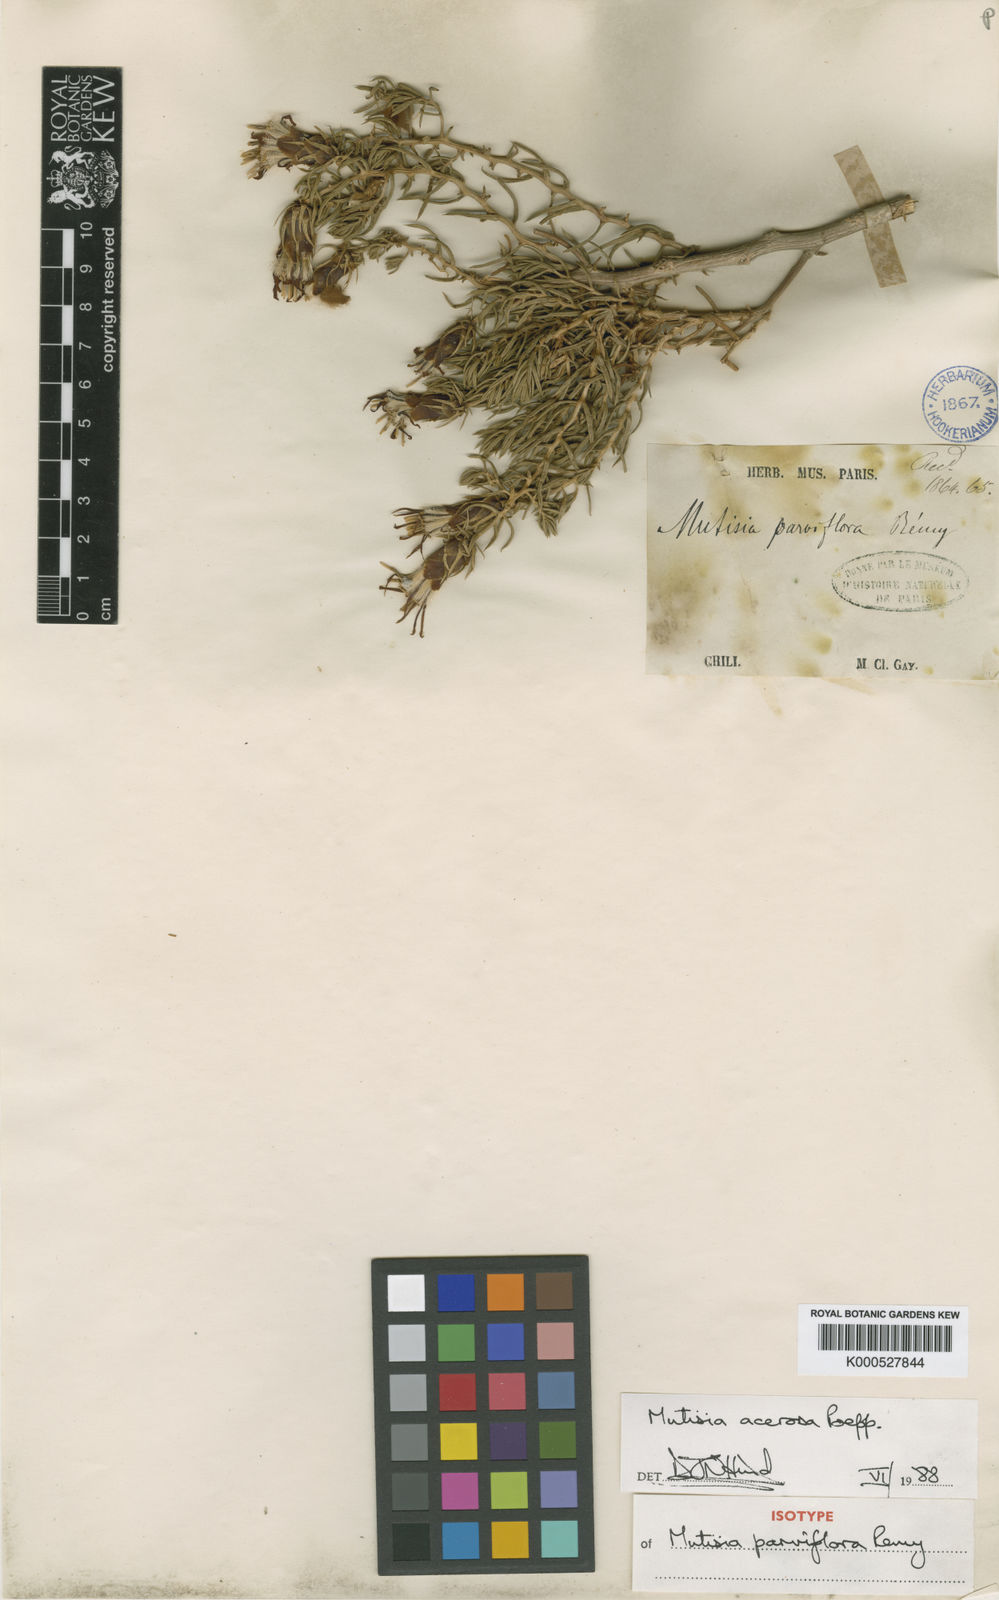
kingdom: Plantae
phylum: Tracheophyta
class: Magnoliopsida
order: Asterales
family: Asteraceae
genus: Mutisia
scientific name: Mutisia acerosa
